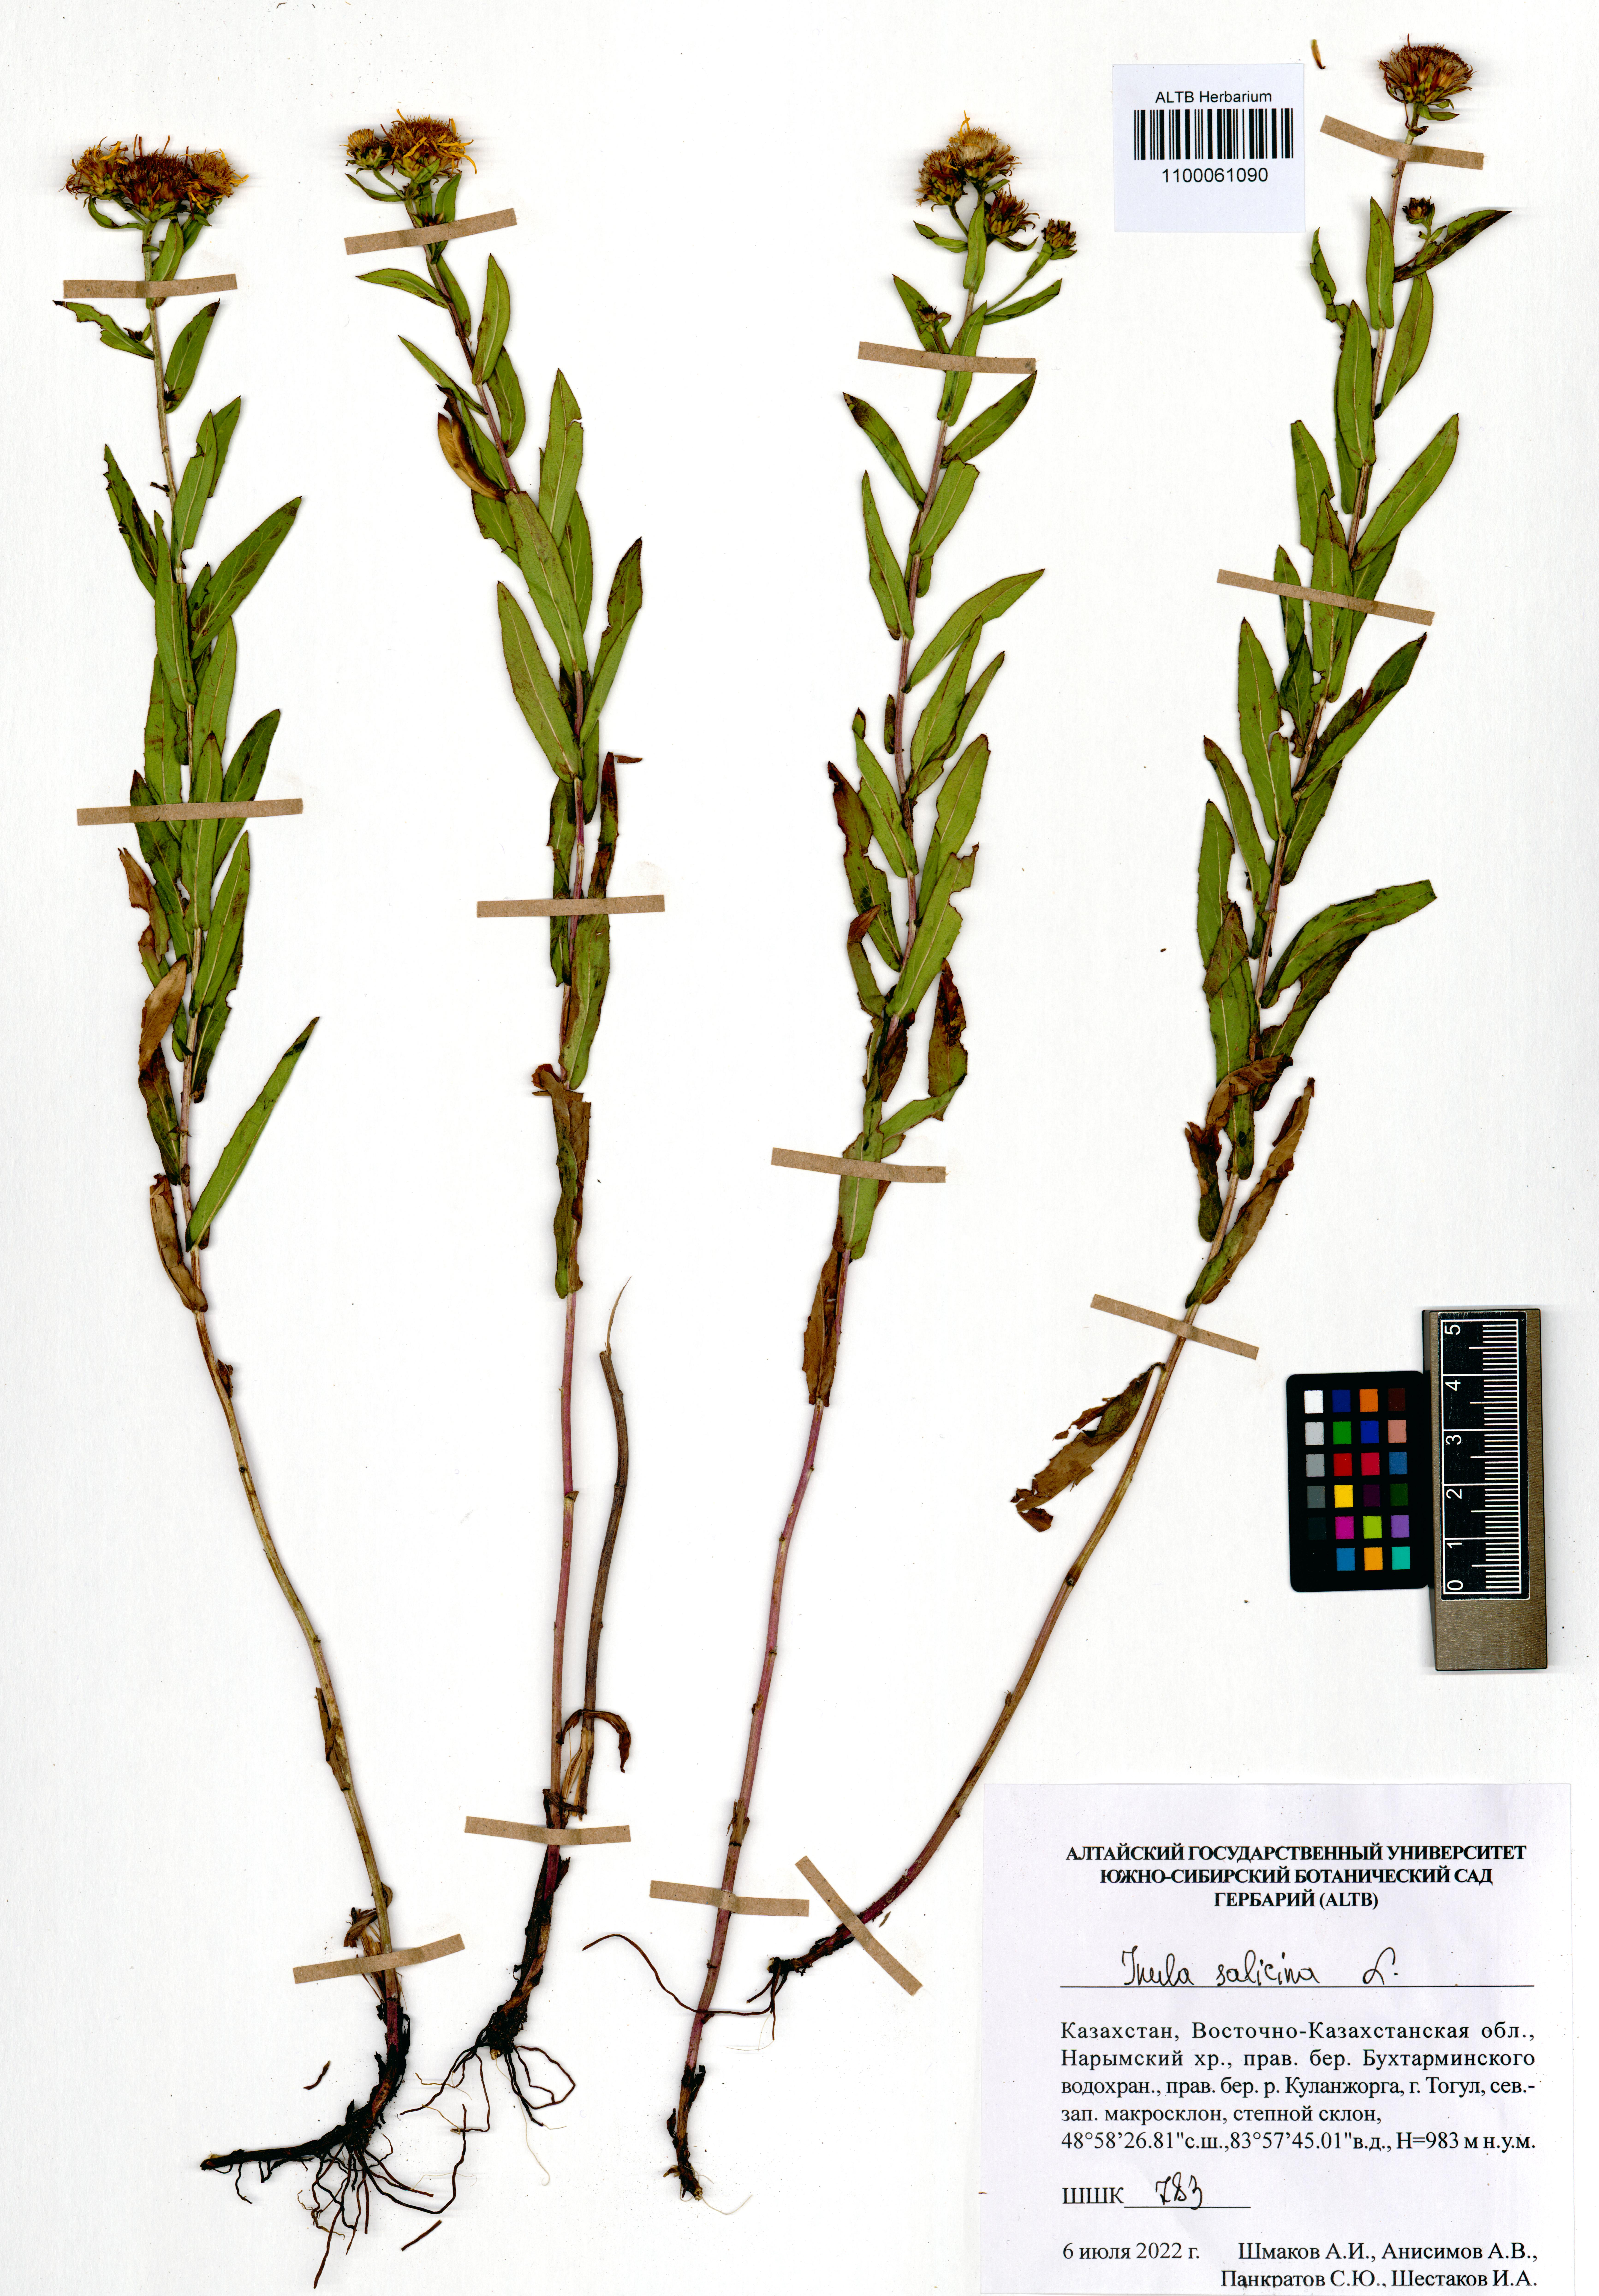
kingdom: Plantae
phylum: Tracheophyta
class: Magnoliopsida
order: Asterales
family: Asteraceae
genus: Pentanema
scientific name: Pentanema salicinum
